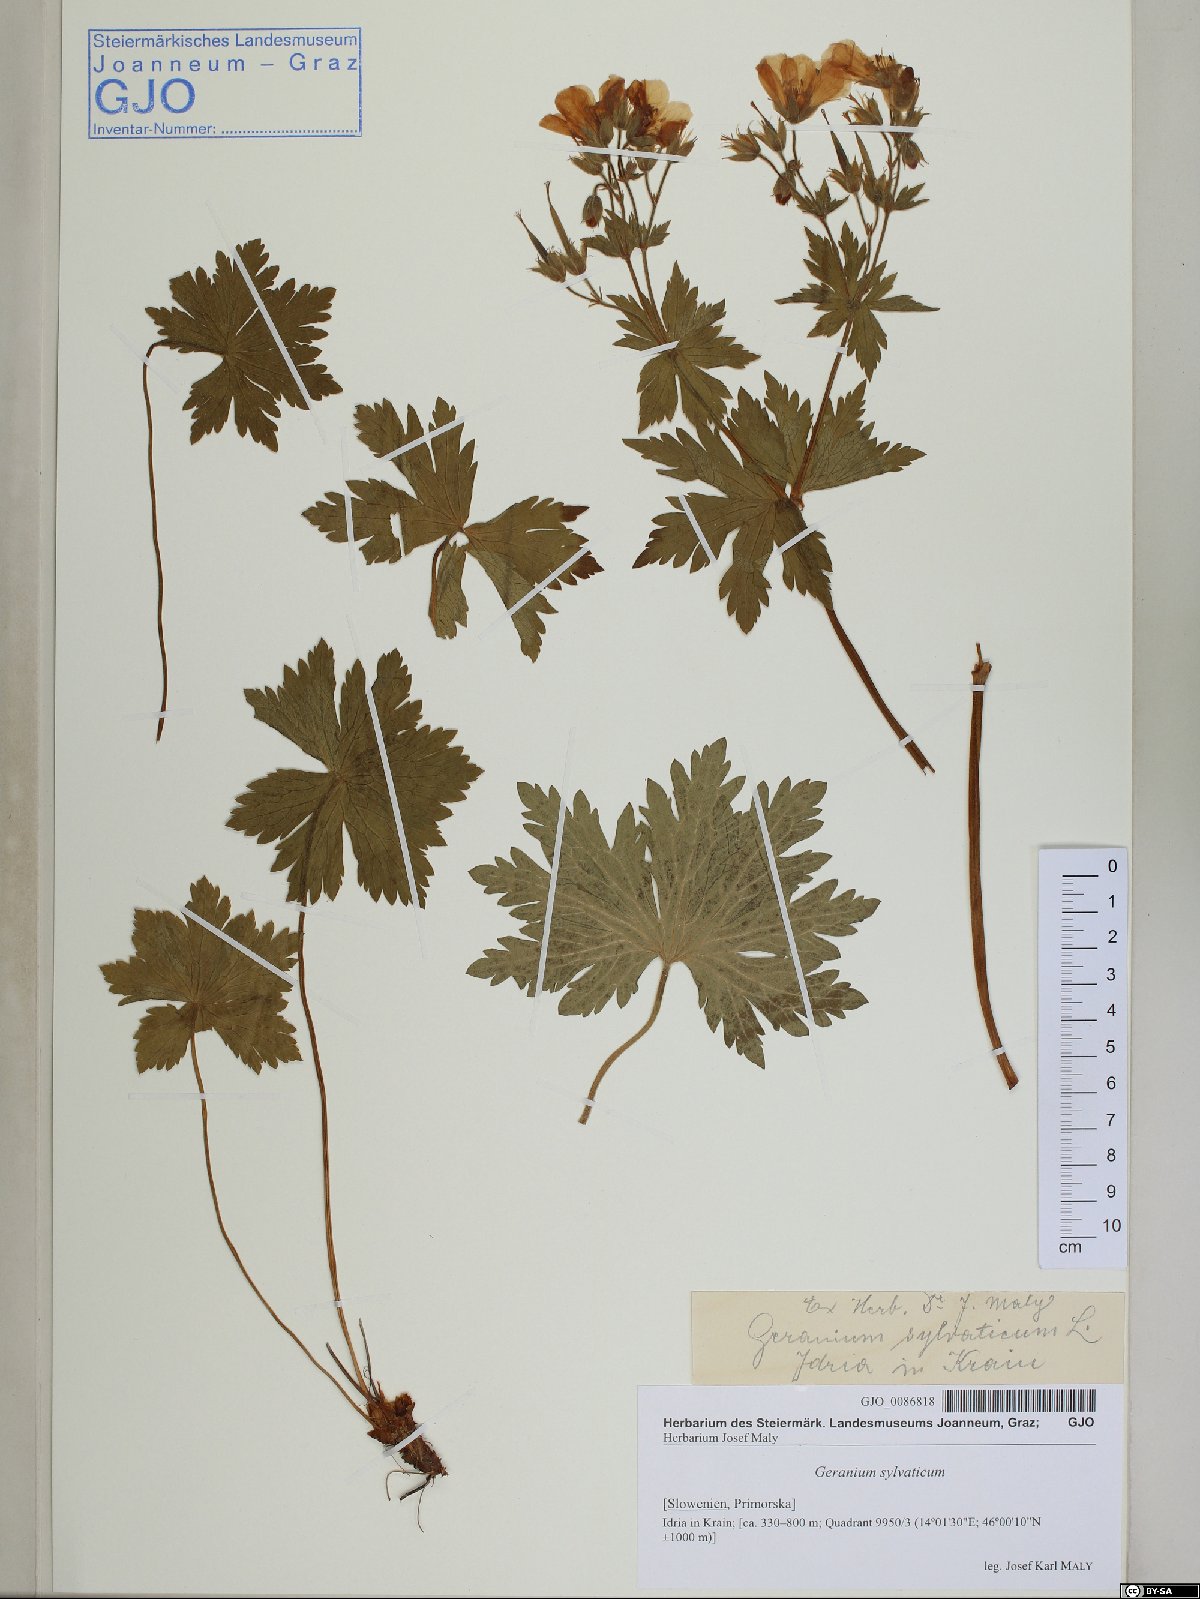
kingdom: Plantae
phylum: Tracheophyta
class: Magnoliopsida
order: Geraniales
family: Geraniaceae
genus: Geranium
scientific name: Geranium sylvaticum
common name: Wood crane's-bill
